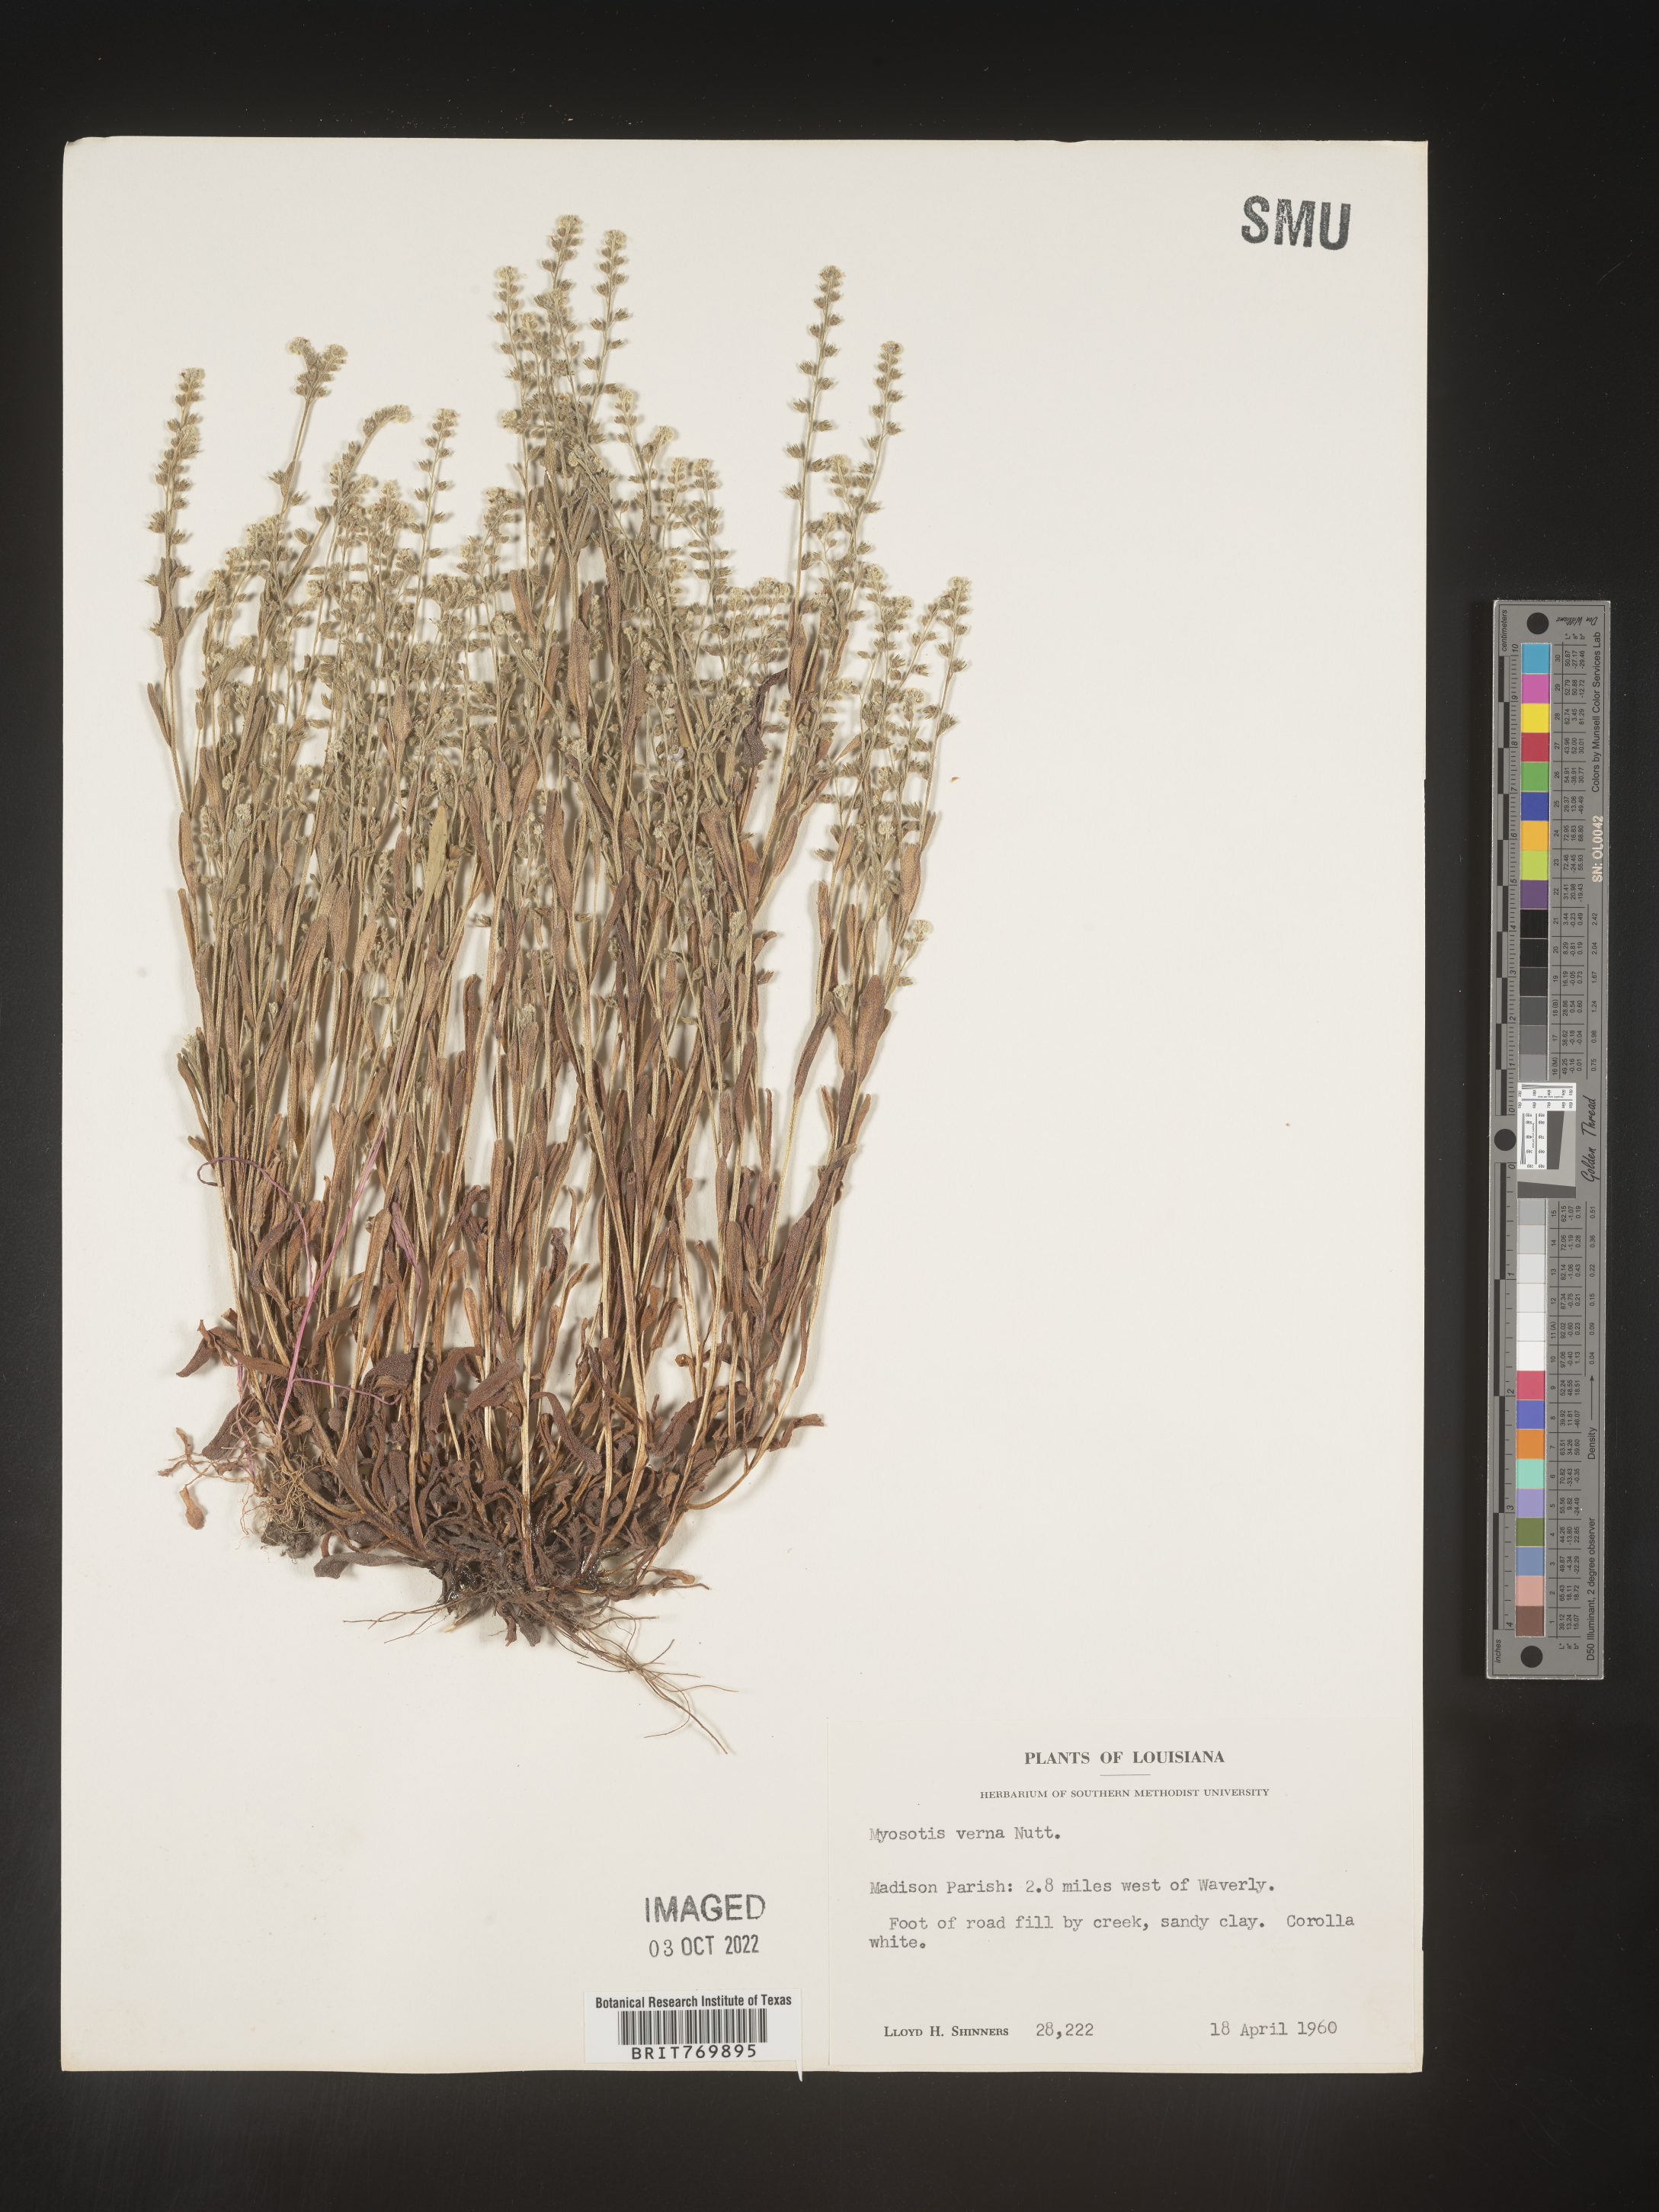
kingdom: Plantae
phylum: Tracheophyta
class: Magnoliopsida
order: Boraginales
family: Boraginaceae
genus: Myosotis
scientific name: Myosotis verna
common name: Early forget-me-not
